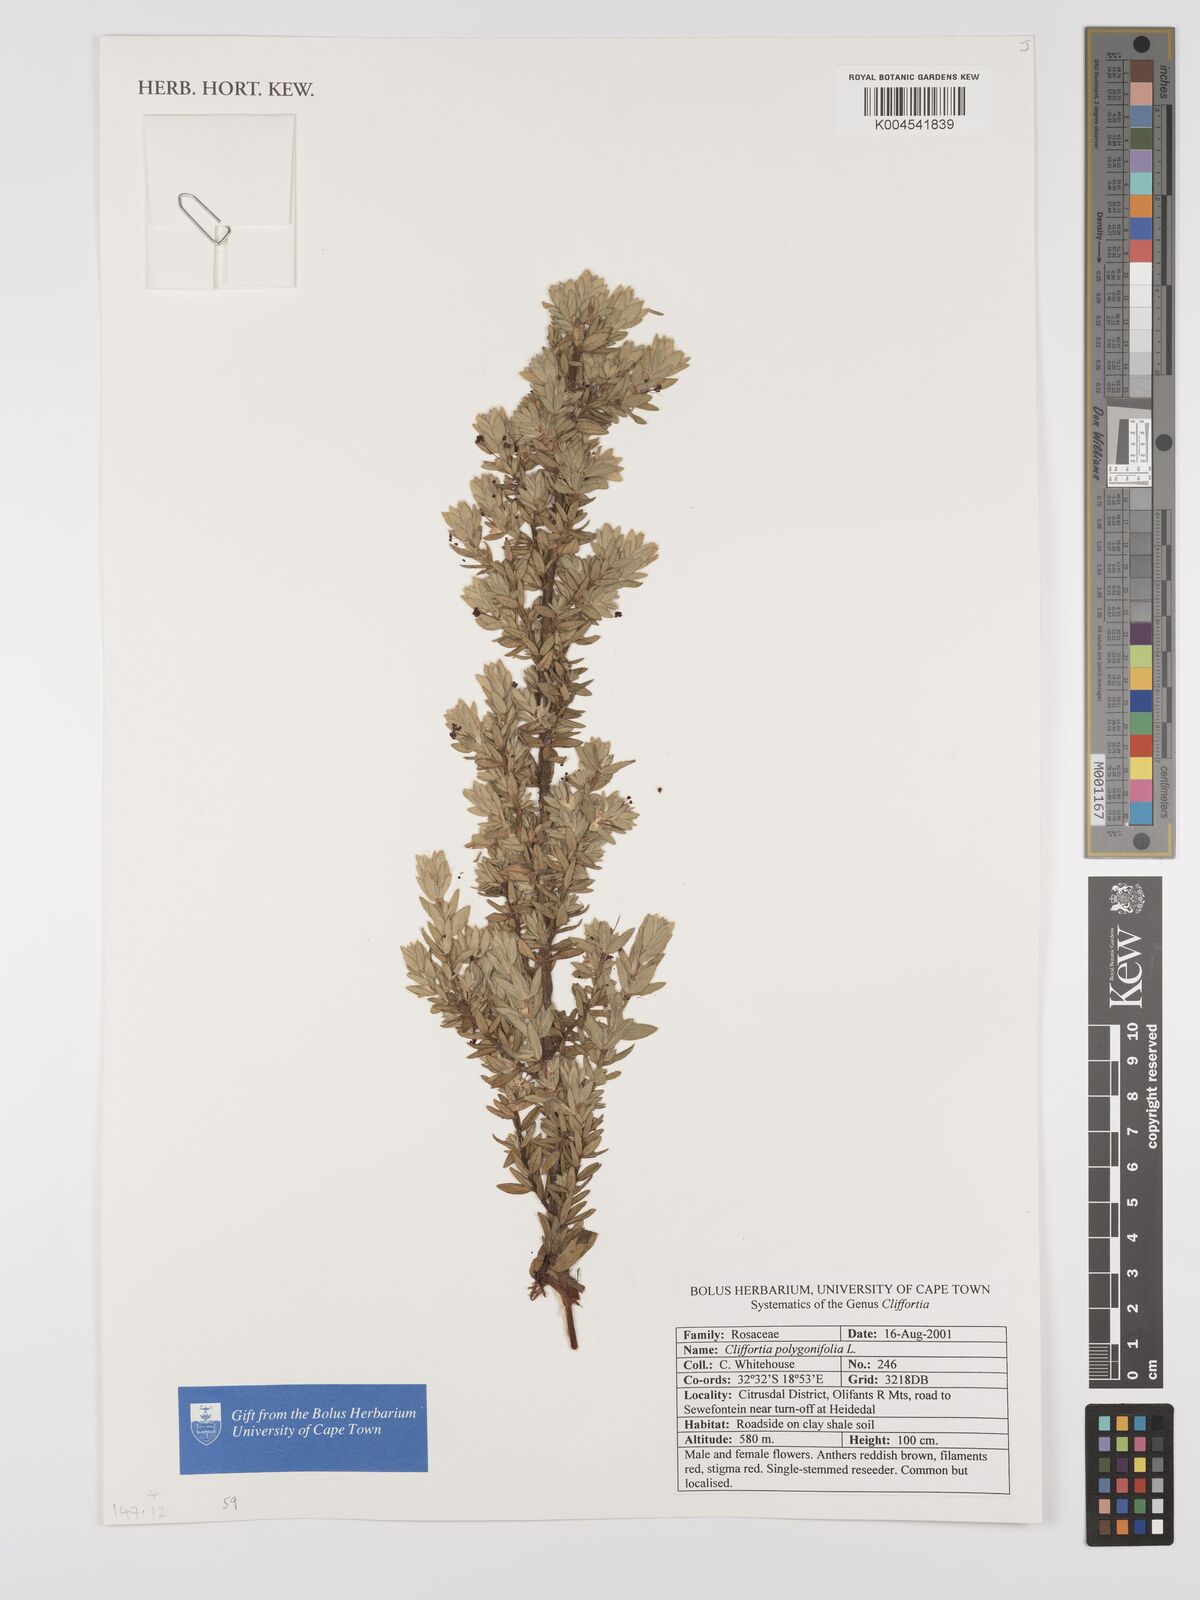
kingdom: Plantae
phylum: Tracheophyta
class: Magnoliopsida
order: Rosales
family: Rosaceae
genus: Cliffortia
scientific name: Cliffortia polygonifolia
